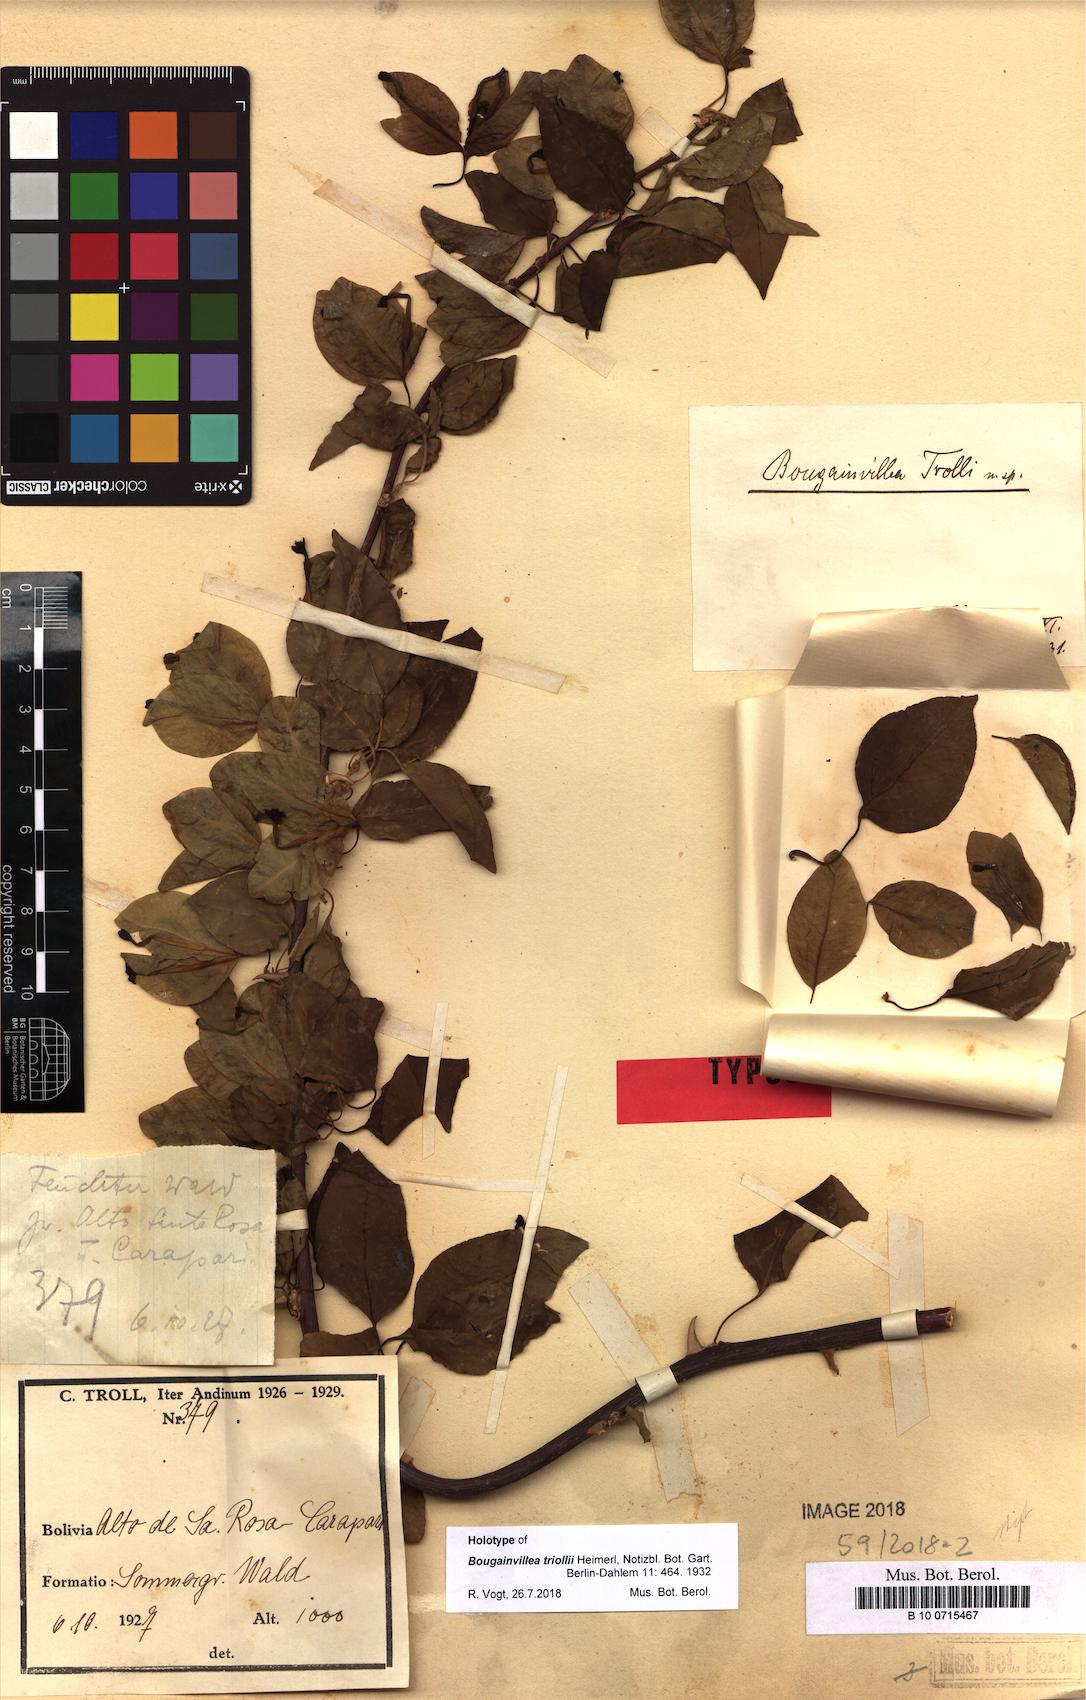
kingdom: Plantae
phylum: Tracheophyta
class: Magnoliopsida
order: Caryophyllales
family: Nyctaginaceae
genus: Bougainvillea
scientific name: Bougainvillea trollii
